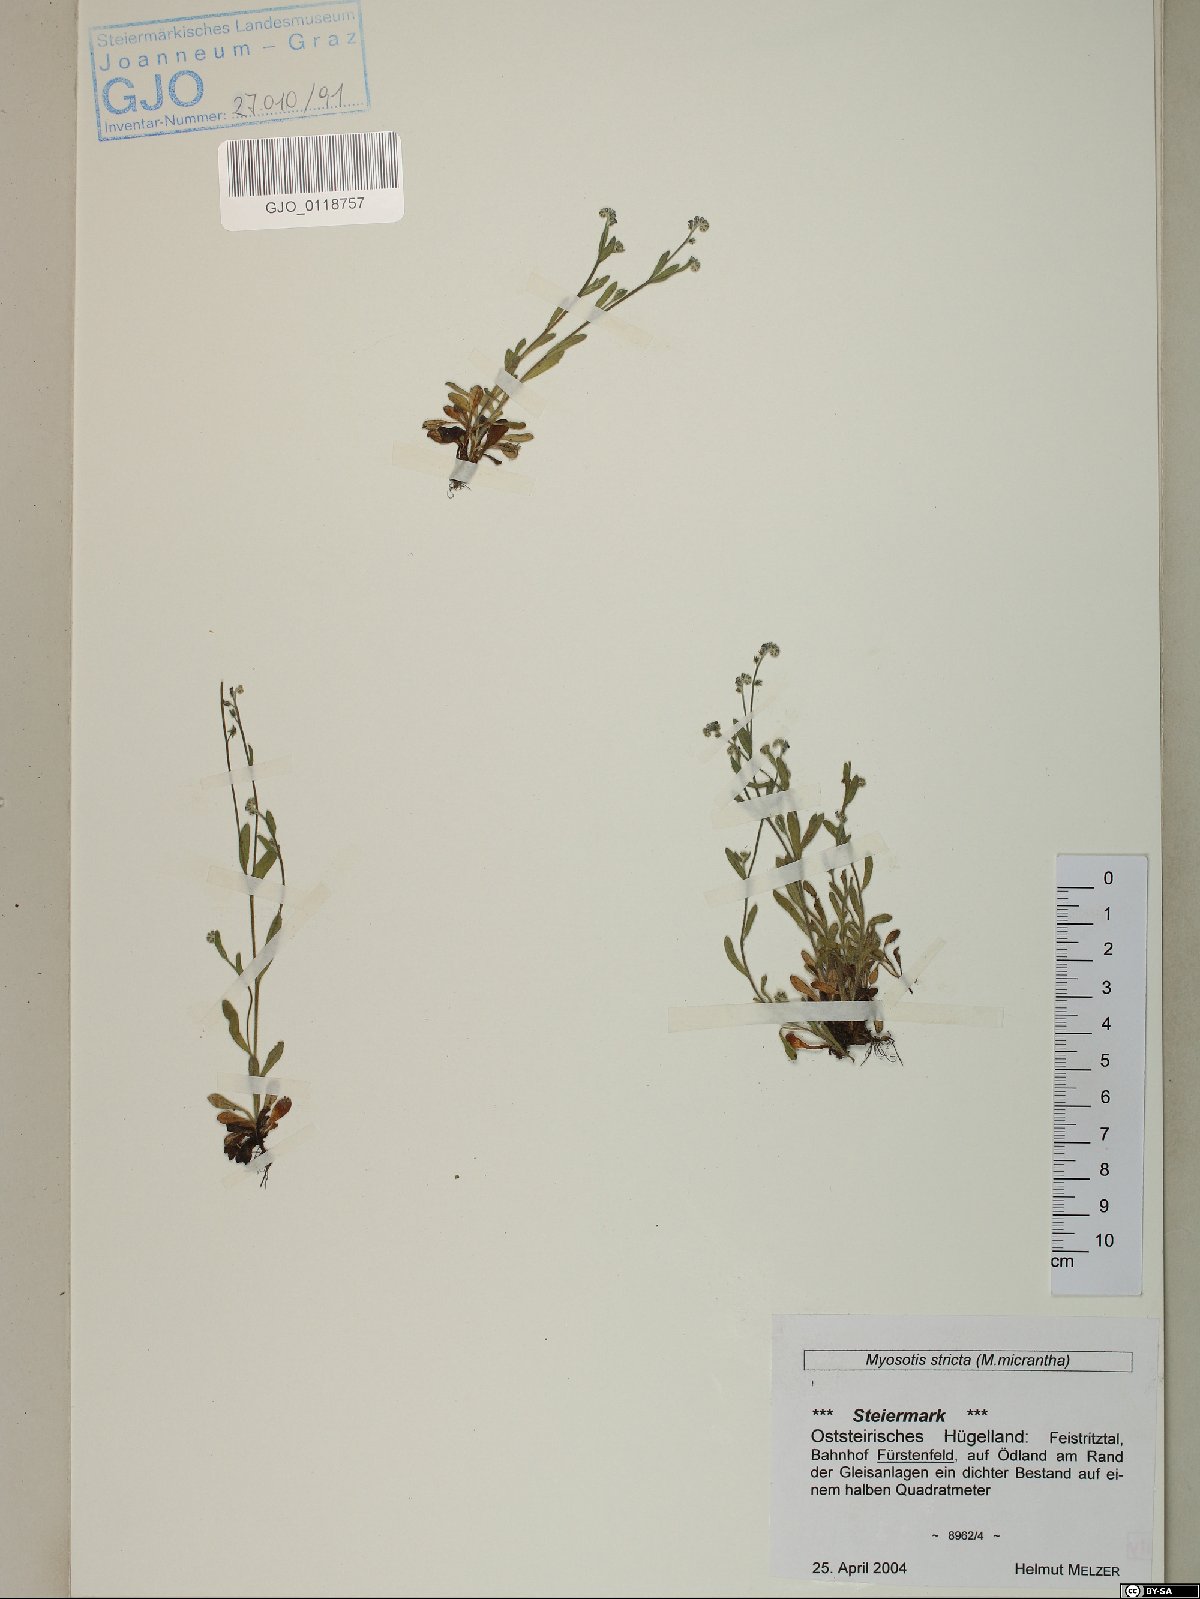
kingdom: Plantae
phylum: Tracheophyta
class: Magnoliopsida
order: Boraginales
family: Boraginaceae
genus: Myosotis
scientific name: Myosotis stricta
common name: Strict forget-me-not
